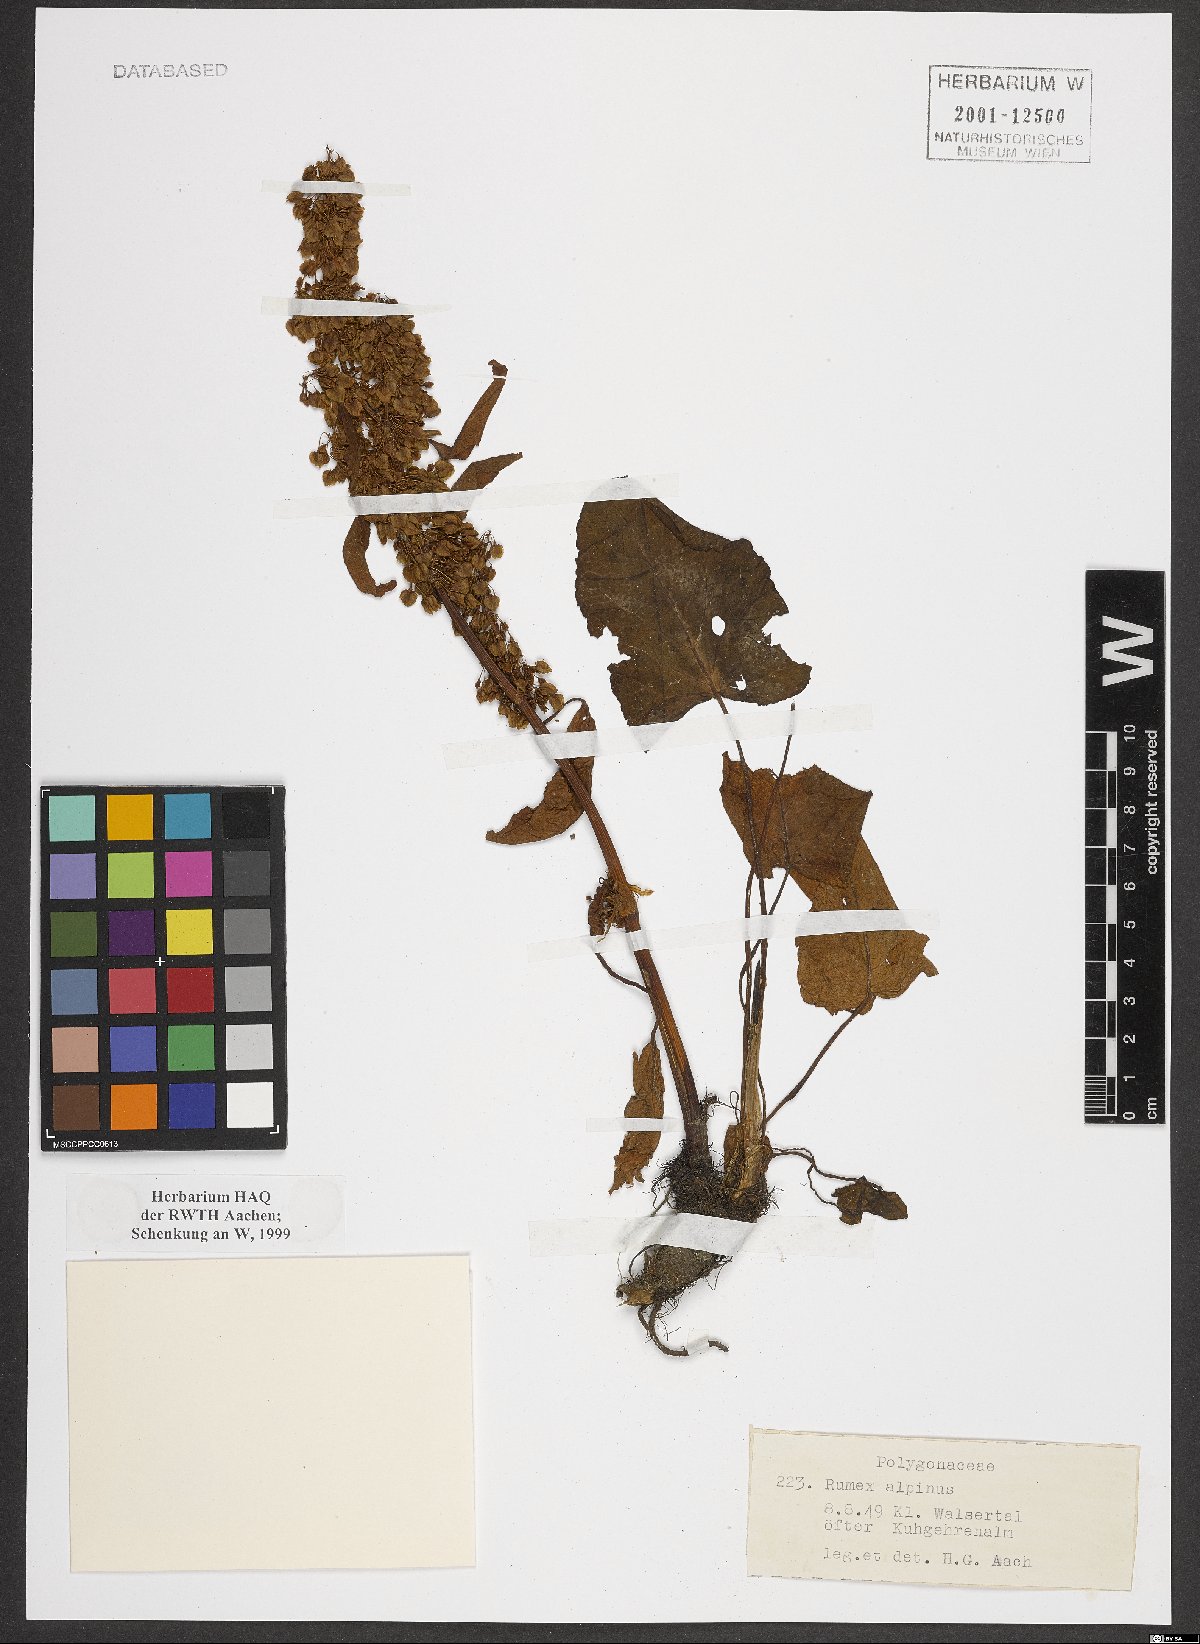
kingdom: Plantae
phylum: Tracheophyta
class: Magnoliopsida
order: Caryophyllales
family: Polygonaceae
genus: Rumex
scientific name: Rumex alpinus
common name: Alpine dock
